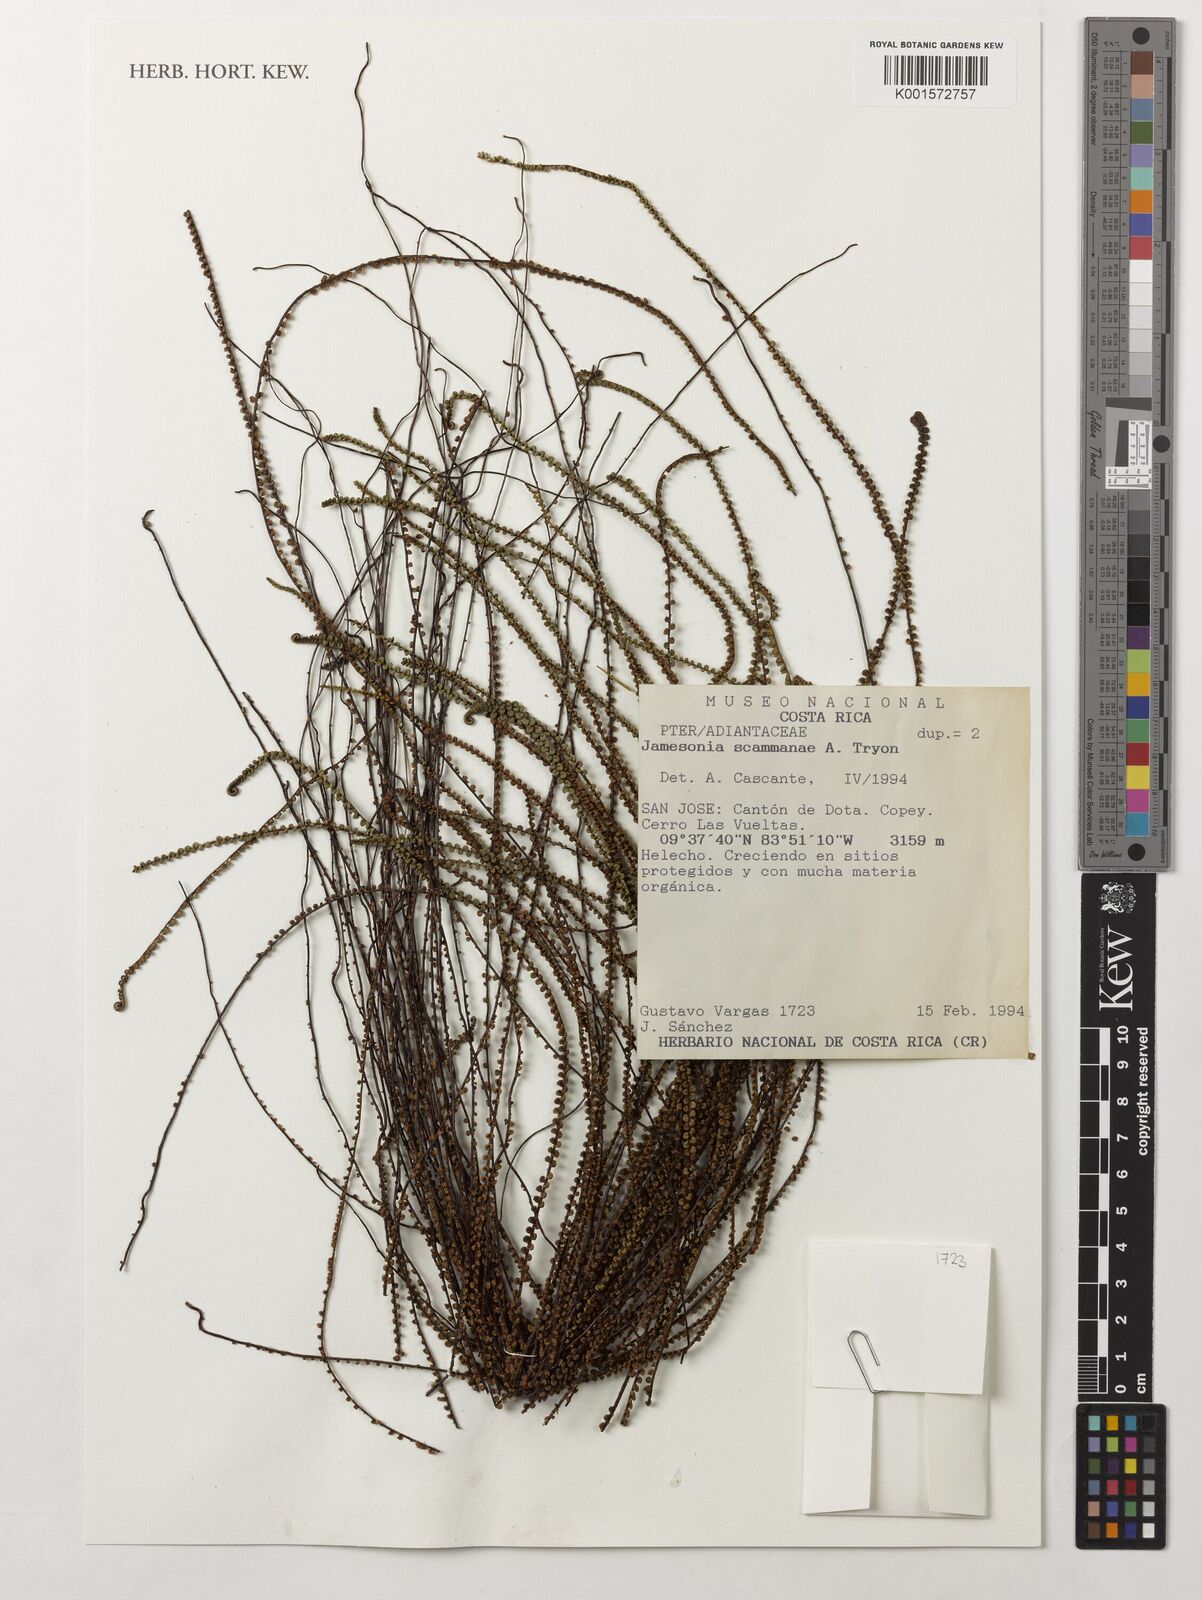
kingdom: Plantae
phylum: Tracheophyta
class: Polypodiopsida
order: Polypodiales
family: Pteridaceae
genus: Jamesonia
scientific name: Jamesonia scammanae
